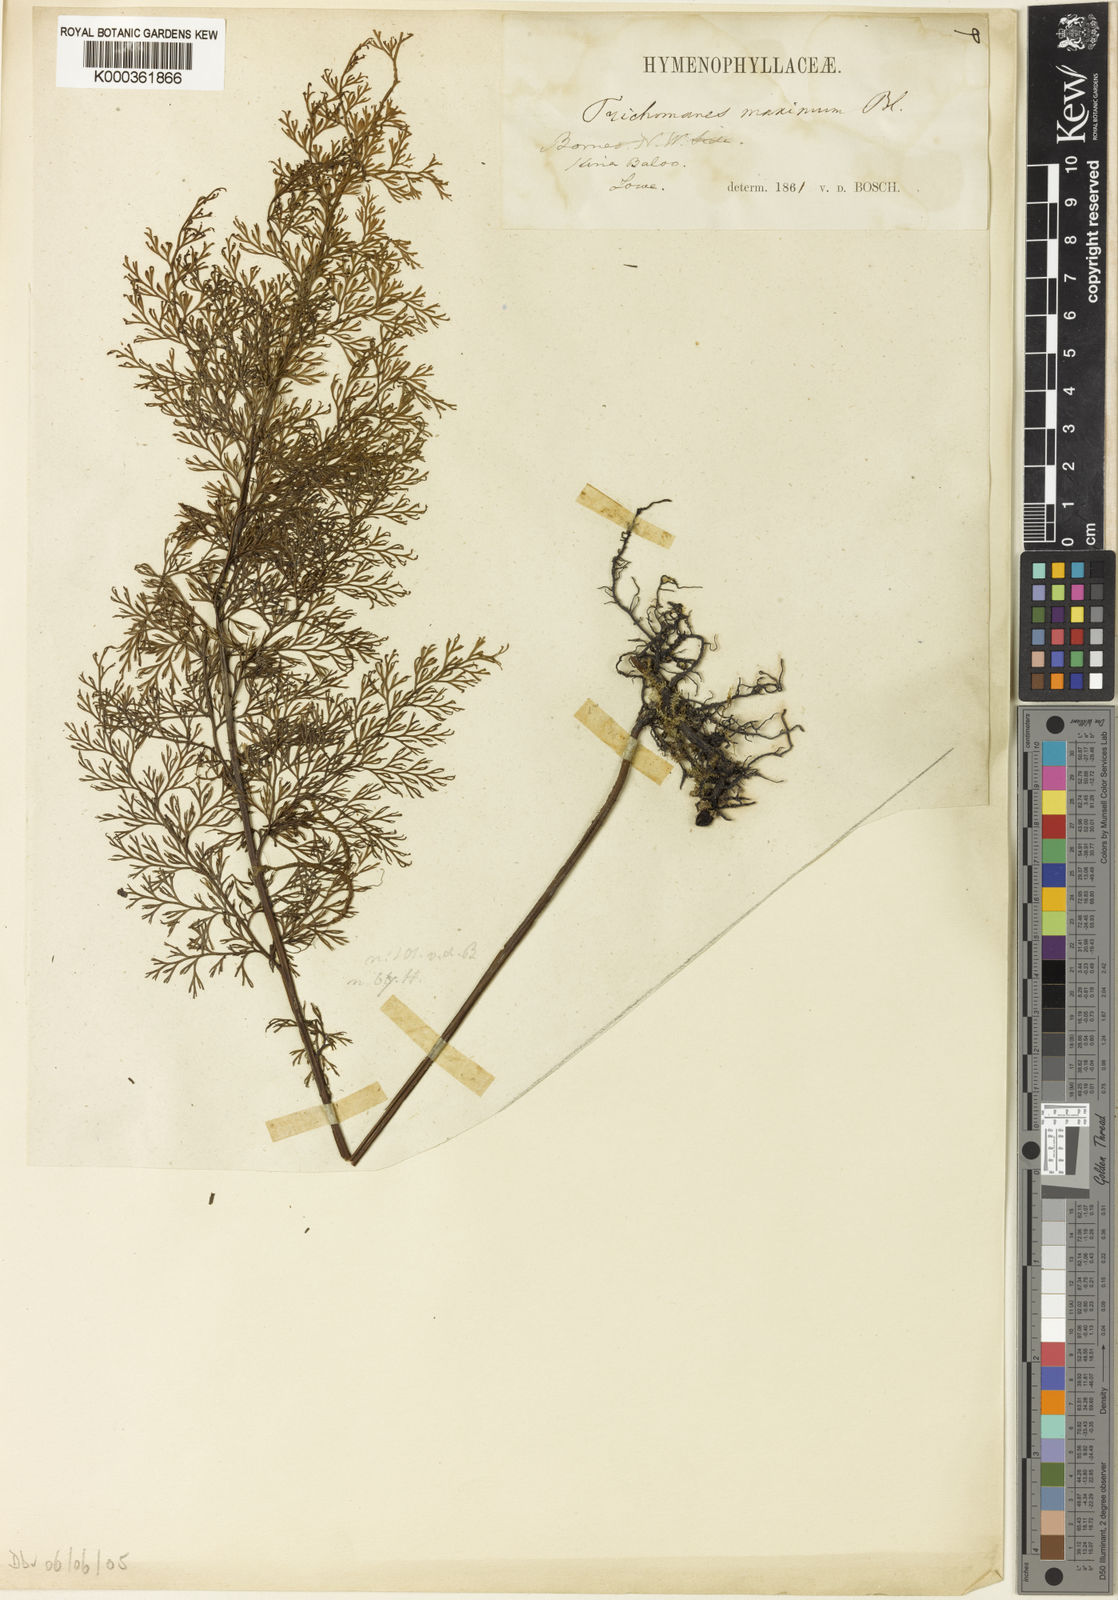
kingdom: Plantae
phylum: Tracheophyta
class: Polypodiopsida
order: Hymenophyllales
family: Hymenophyllaceae
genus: Vandenboschia
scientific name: Vandenboschia maxima
